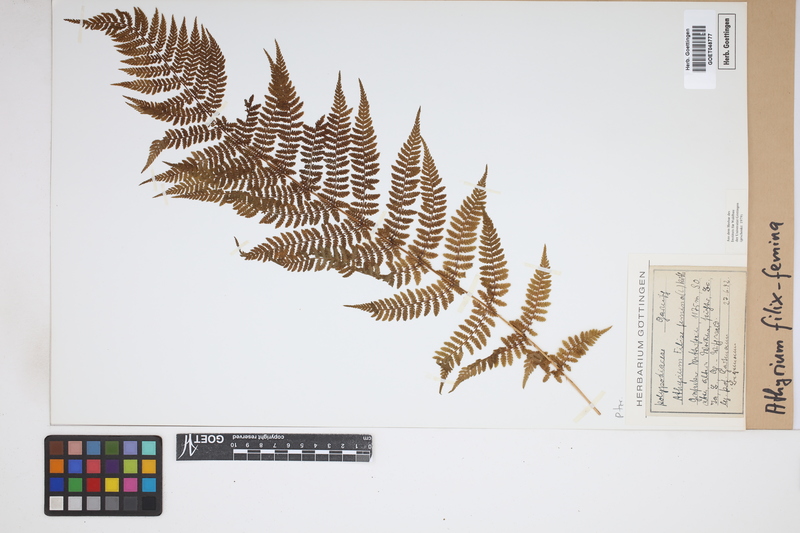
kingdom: Plantae
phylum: Tracheophyta
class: Polypodiopsida
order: Polypodiales
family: Athyriaceae
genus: Athyrium
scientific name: Athyrium filix-femina
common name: Lady fern
